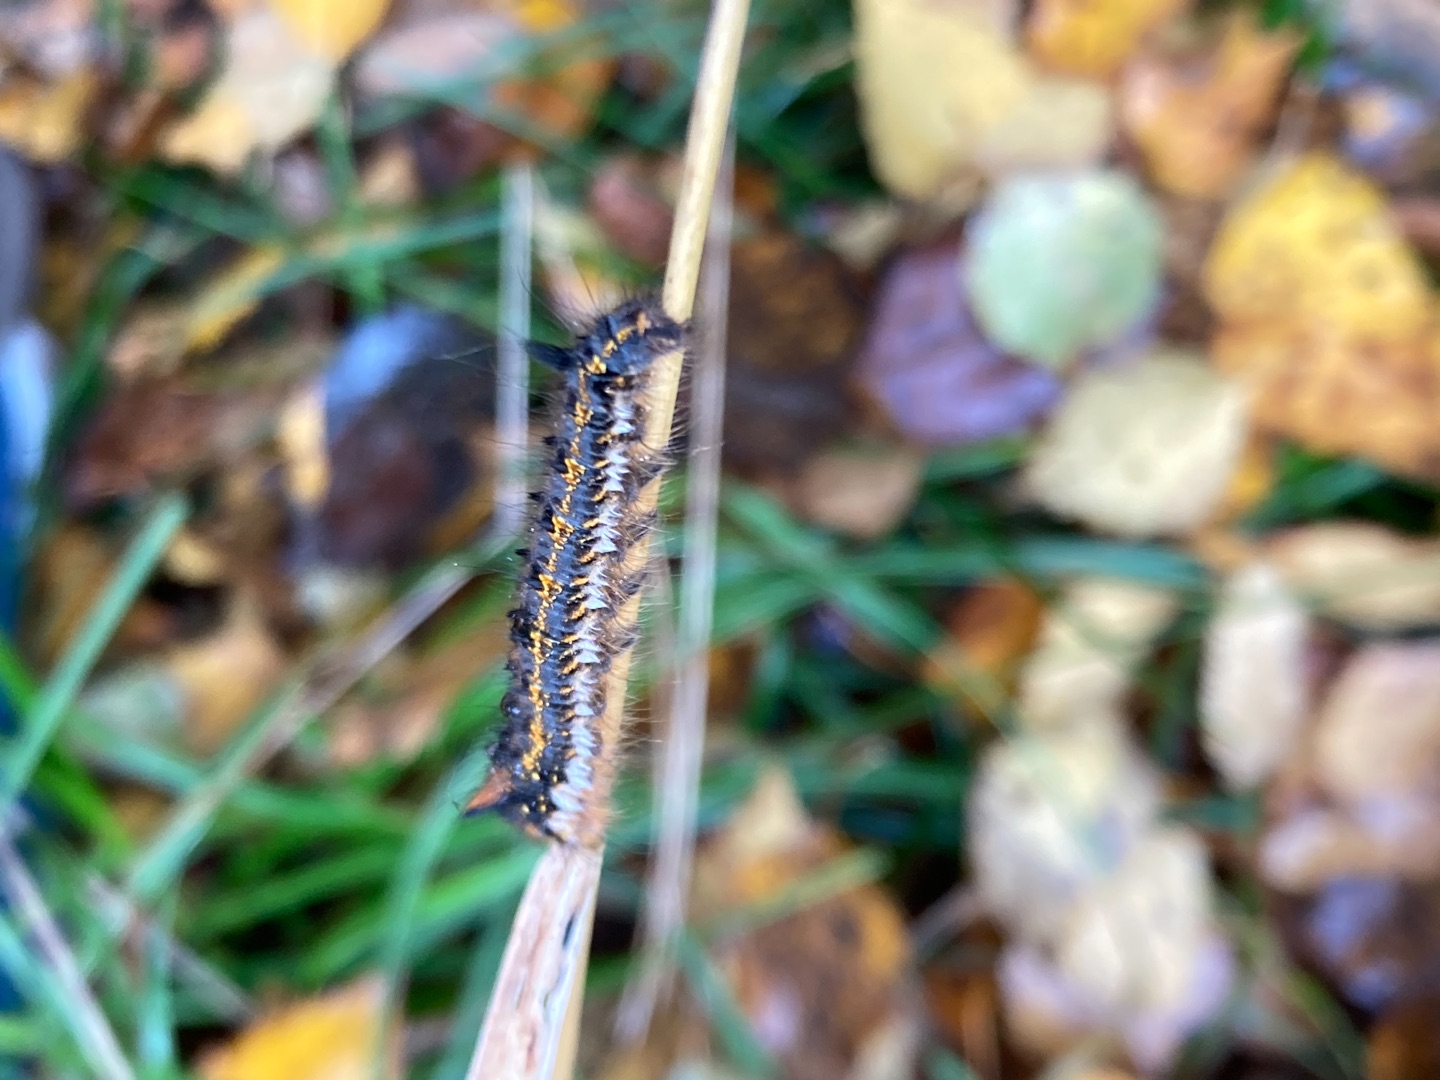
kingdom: Animalia
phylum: Arthropoda
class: Insecta
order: Lepidoptera
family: Lasiocampidae
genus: Euthrix
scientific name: Euthrix potatoria
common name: Græsspinder
